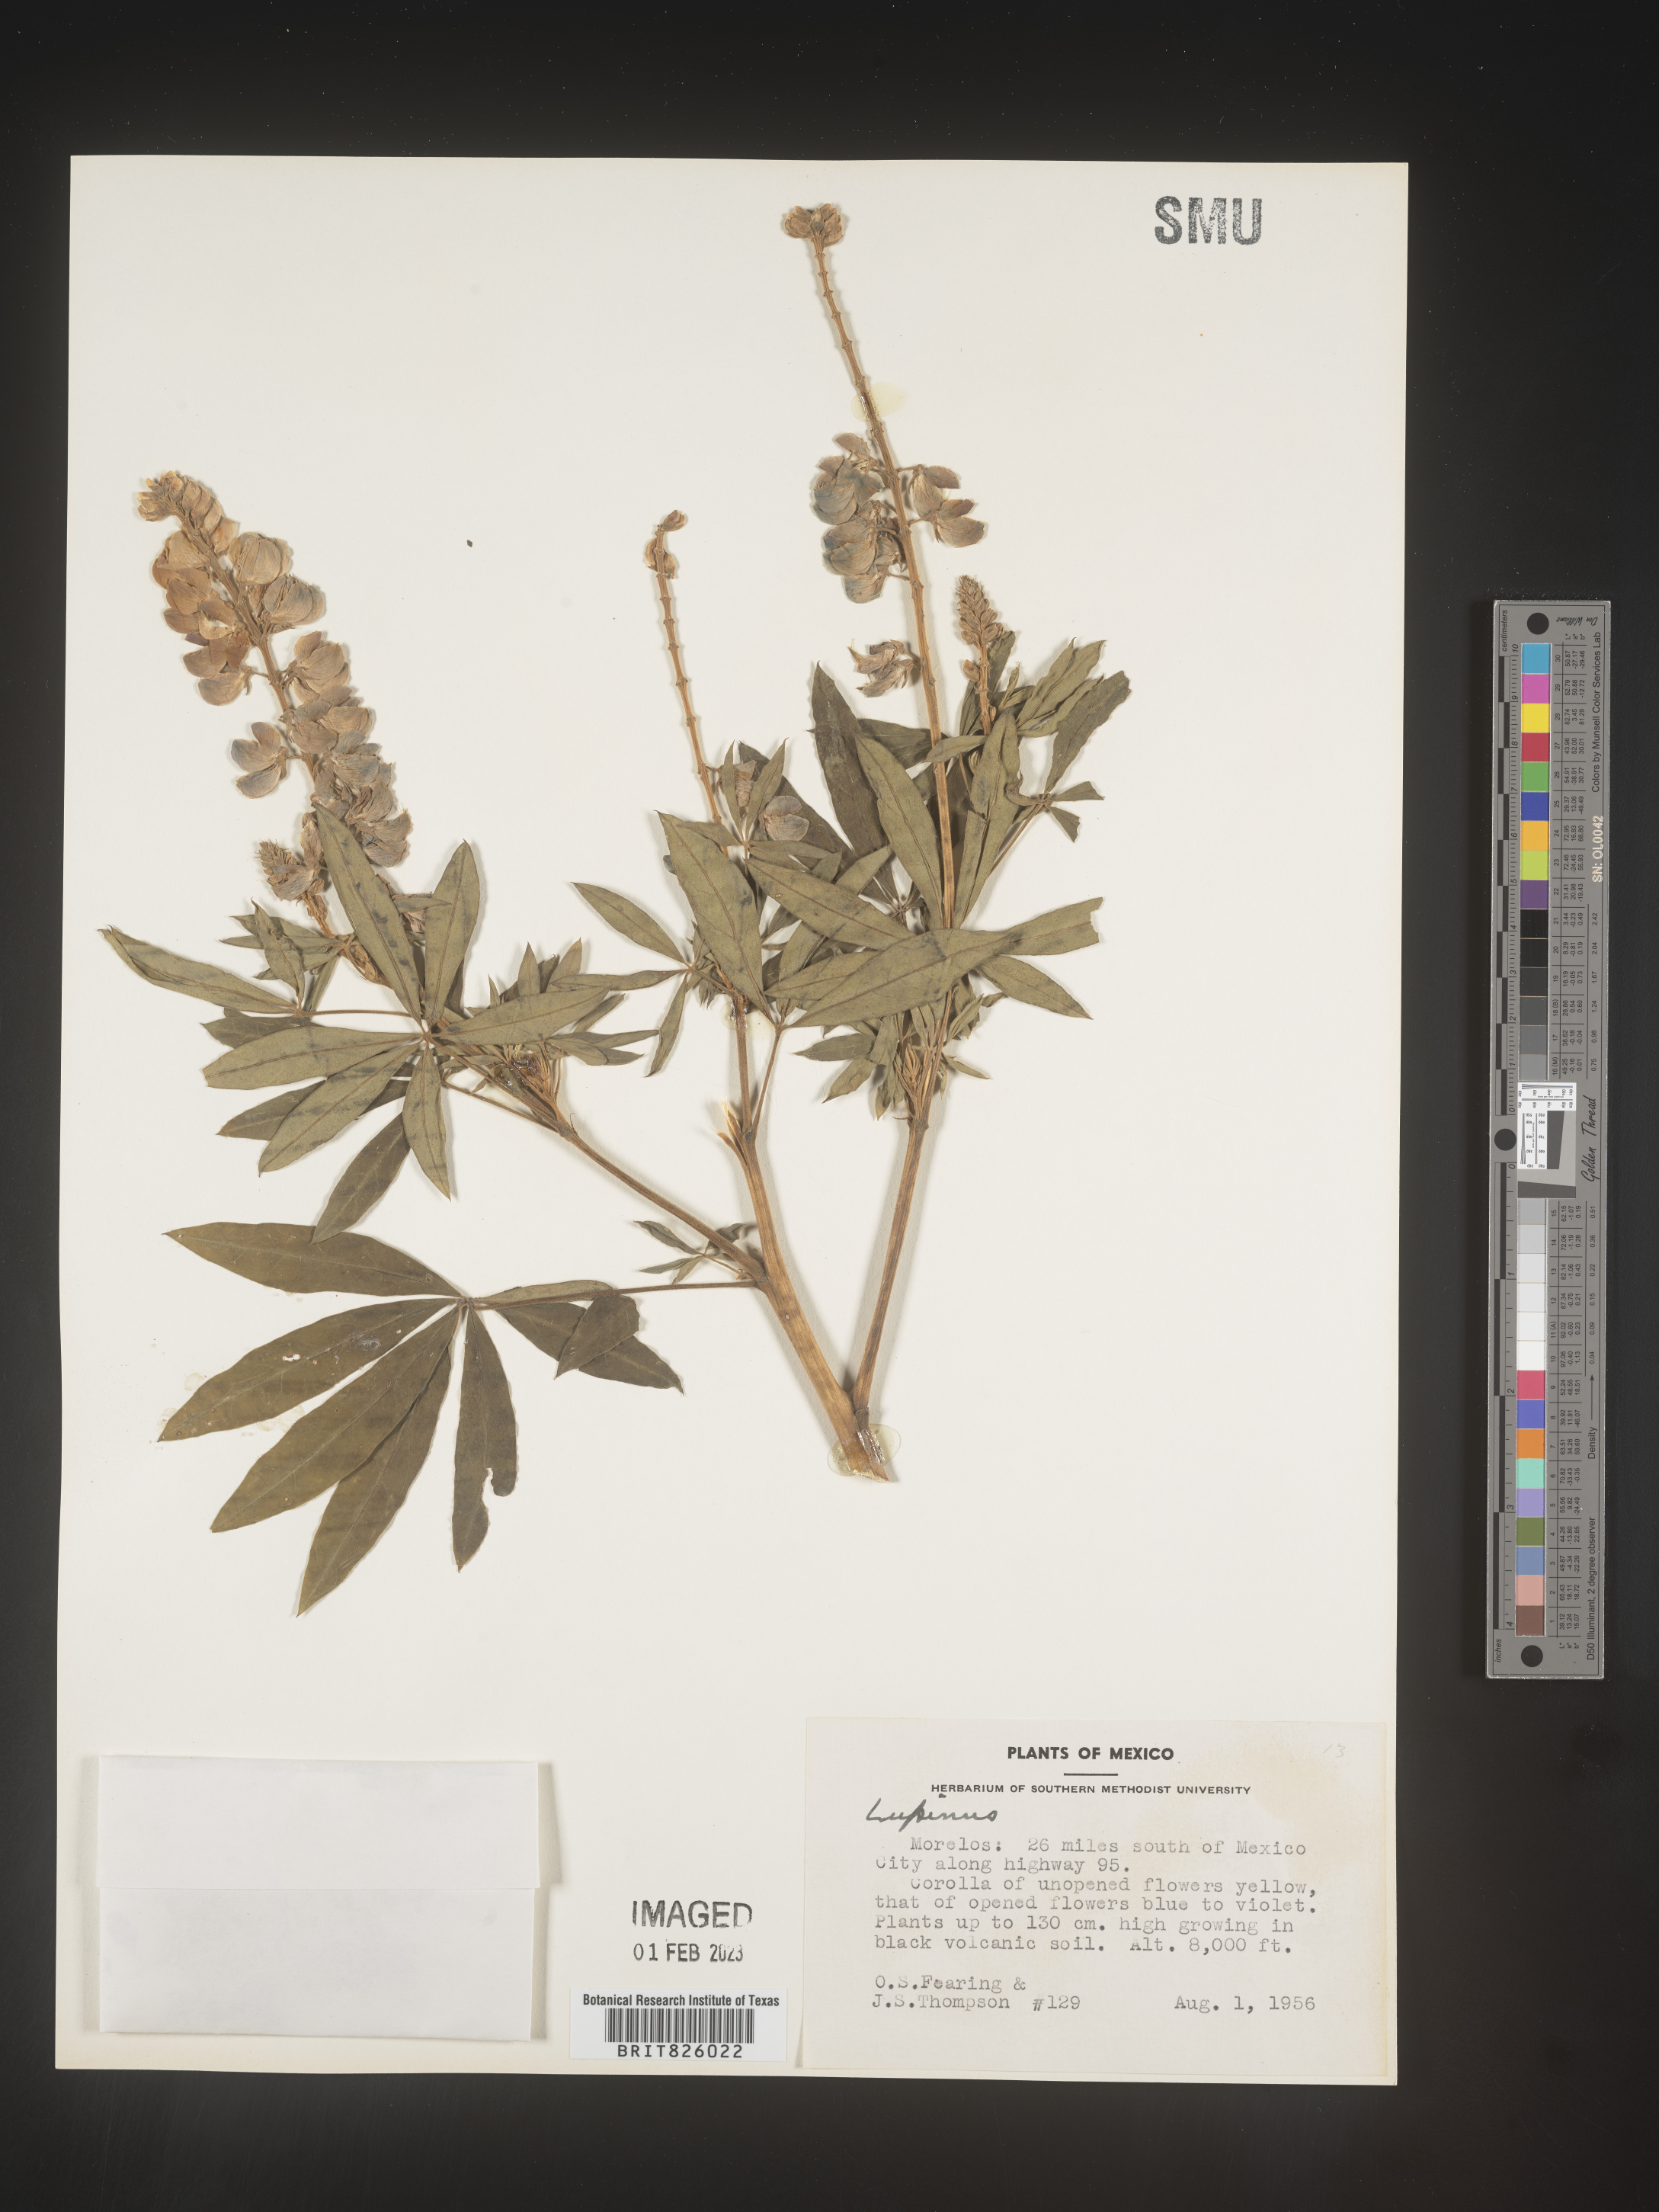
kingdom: Plantae
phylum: Tracheophyta
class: Magnoliopsida
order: Fabales
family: Fabaceae
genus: Lupinus
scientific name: Lupinus
